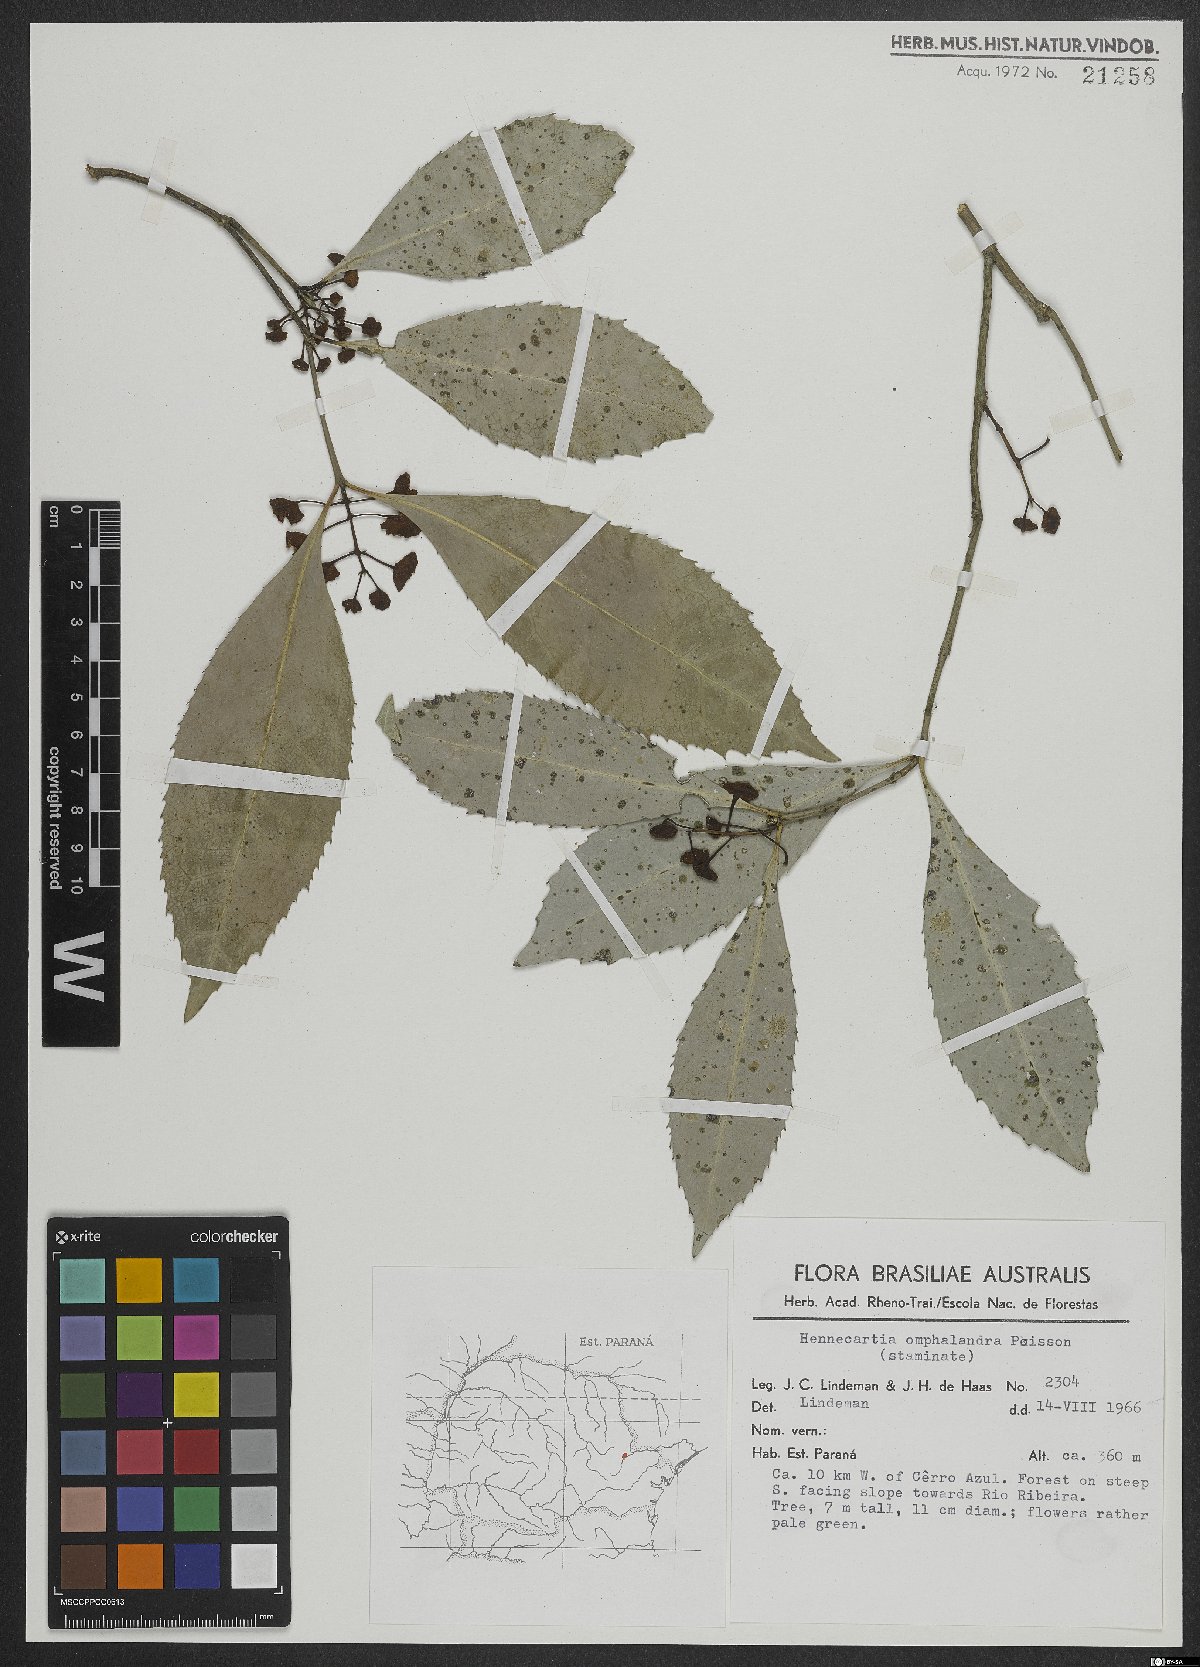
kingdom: Plantae
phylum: Tracheophyta
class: Magnoliopsida
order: Laurales
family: Monimiaceae
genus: Hennecartia
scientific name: Hennecartia omphalandra
